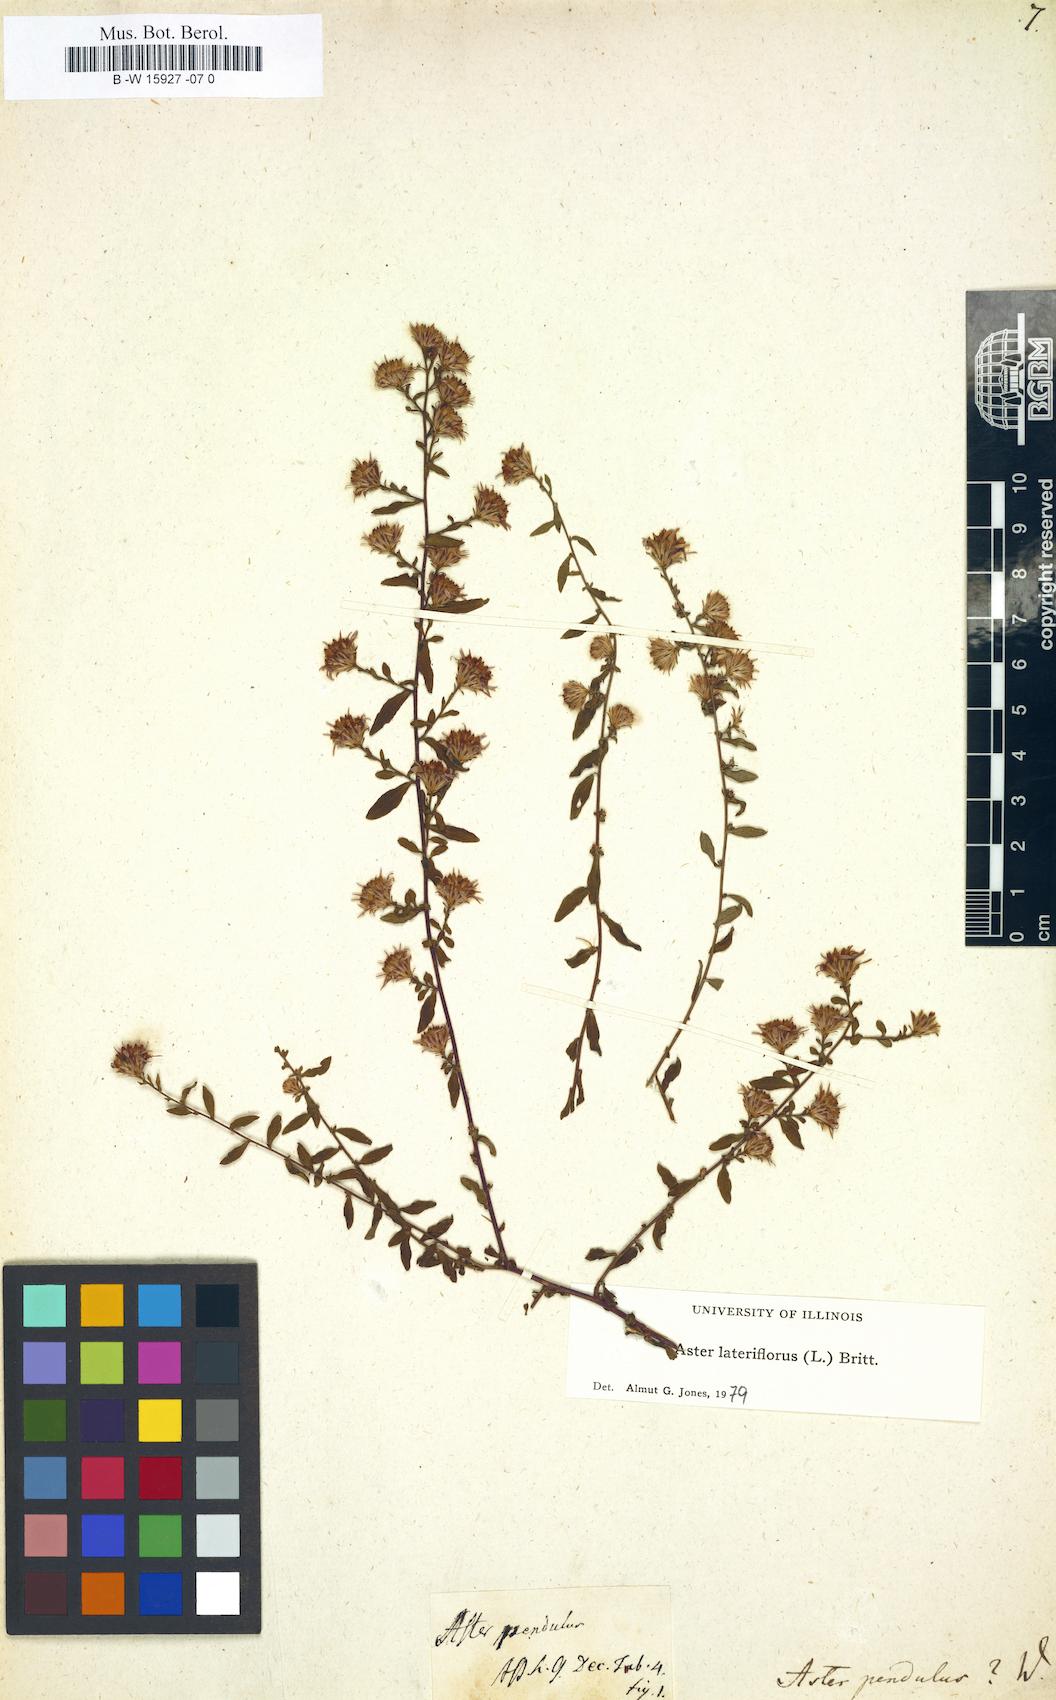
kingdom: Plantae
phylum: Tracheophyta
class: Magnoliopsida
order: Asterales
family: Asteraceae
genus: Aster
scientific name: Aster pendulus
